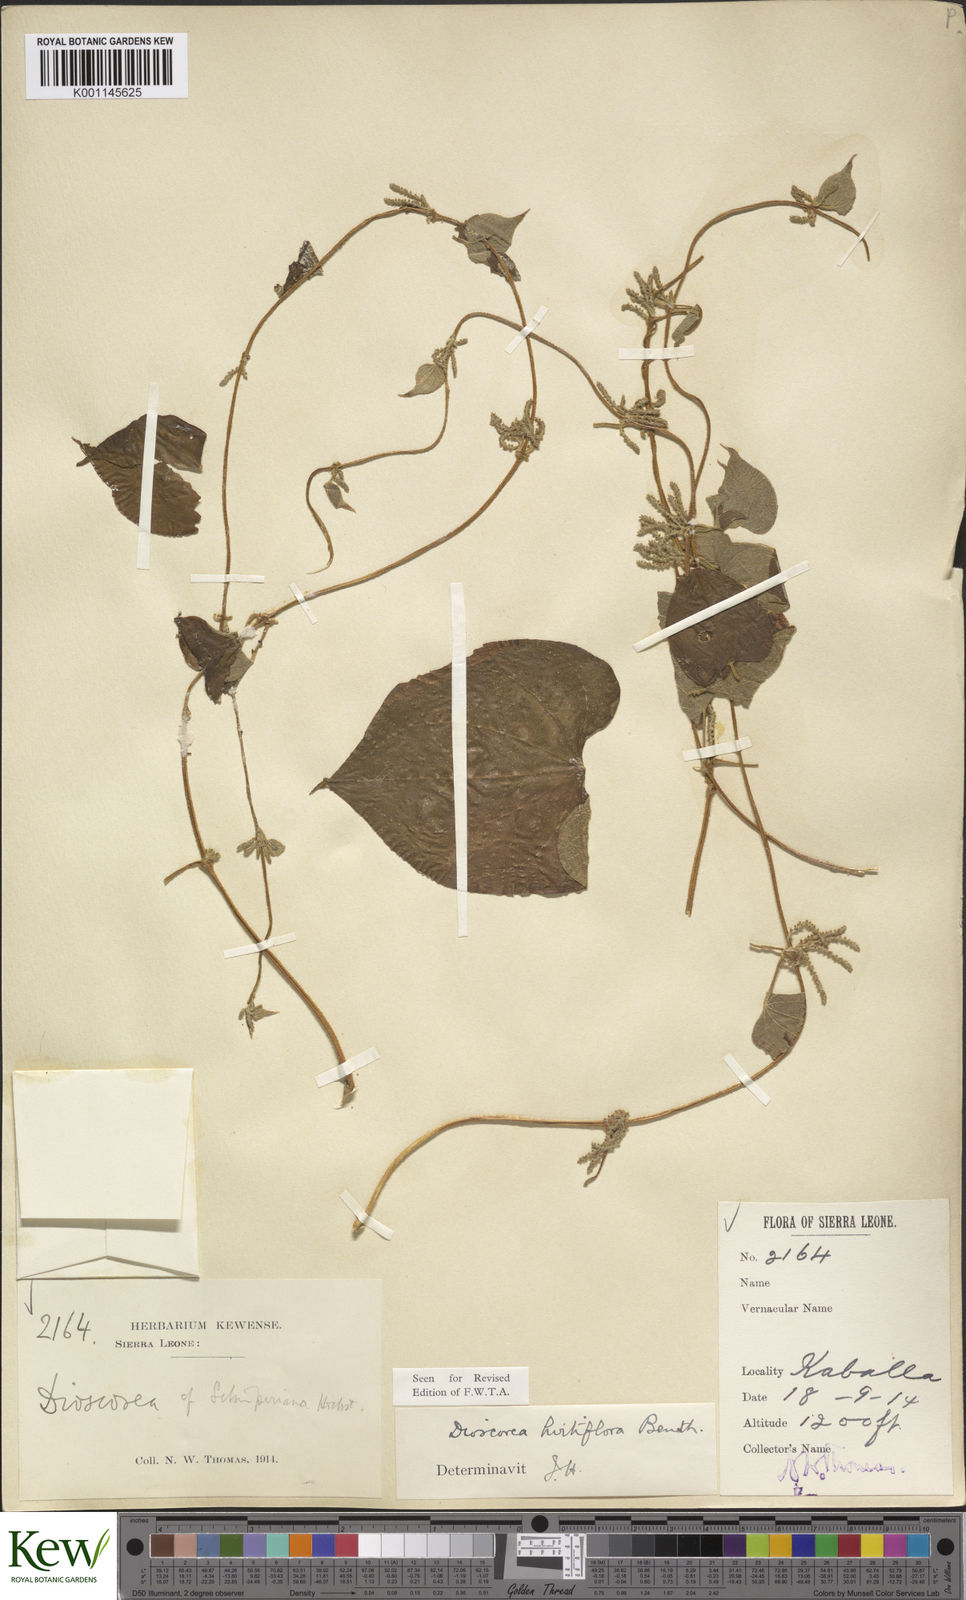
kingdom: Plantae
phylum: Tracheophyta
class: Liliopsida
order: Dioscoreales
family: Dioscoreaceae
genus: Dioscorea
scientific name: Dioscorea hirtiflora
